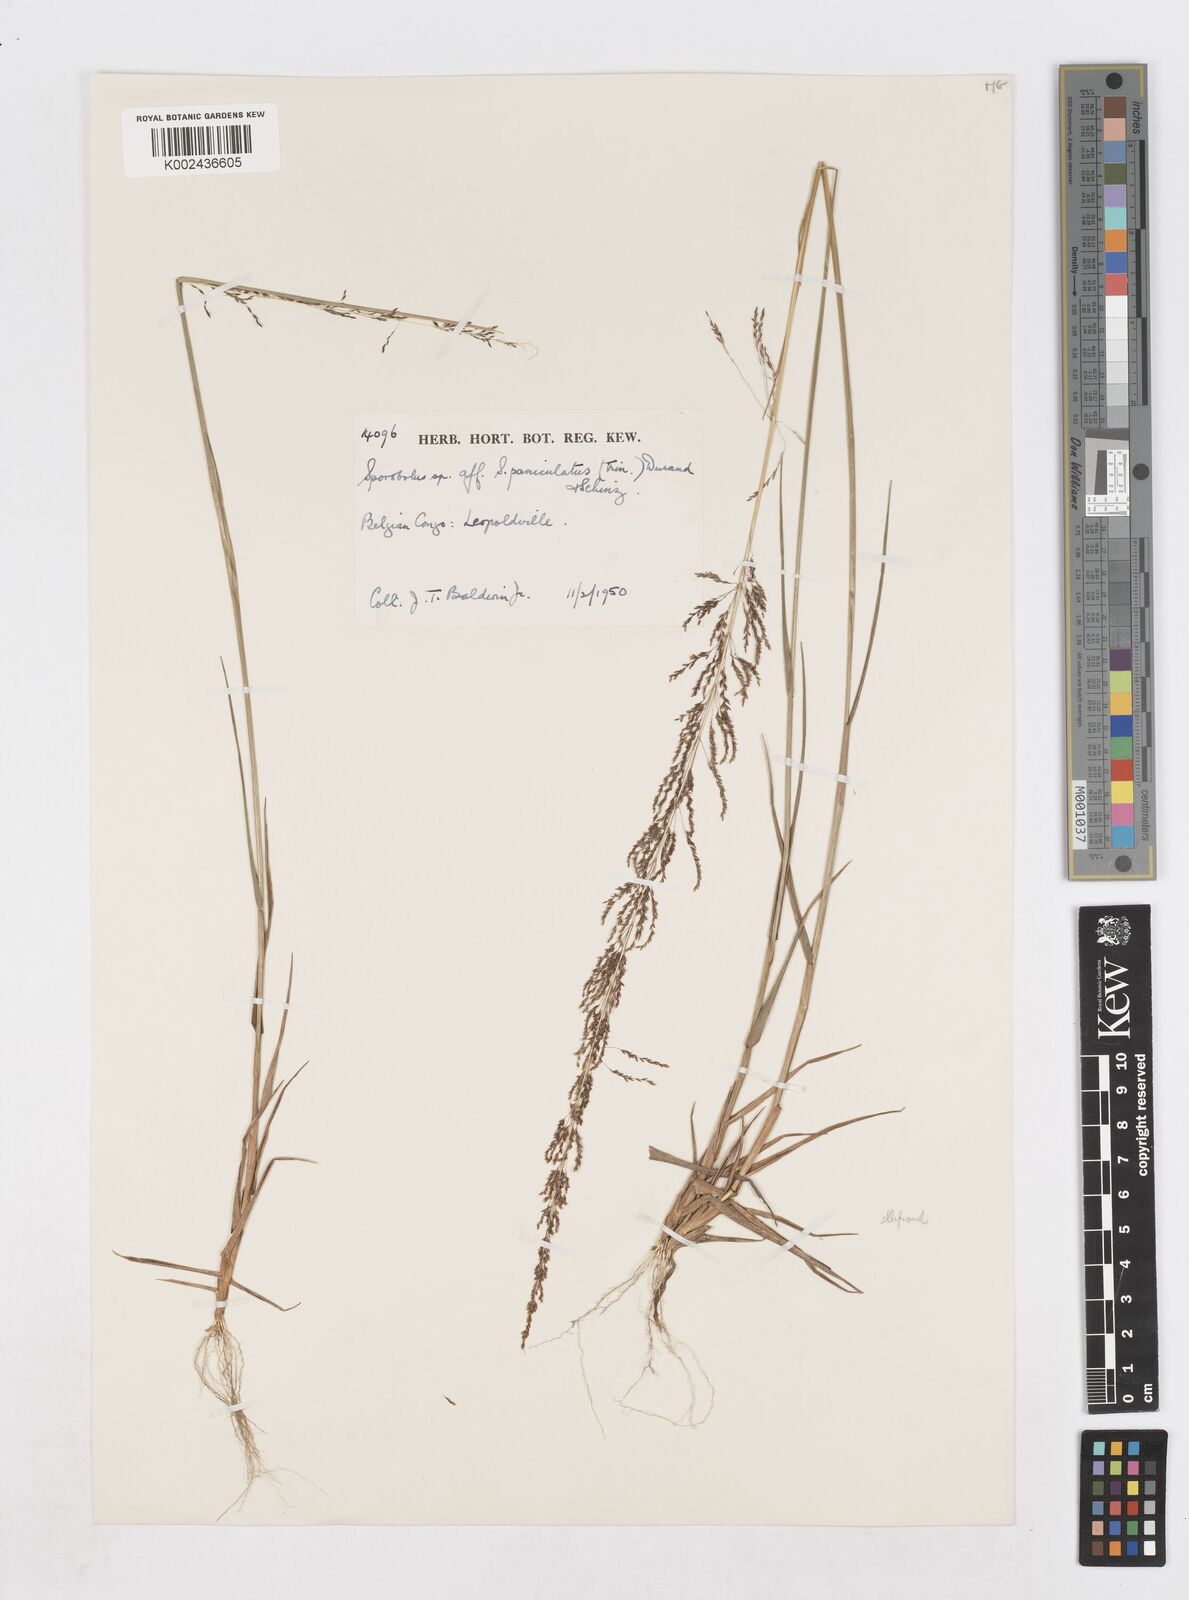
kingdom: Plantae
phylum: Tracheophyta
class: Liliopsida
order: Poales
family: Poaceae
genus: Sporobolus
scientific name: Sporobolus paniculatus
